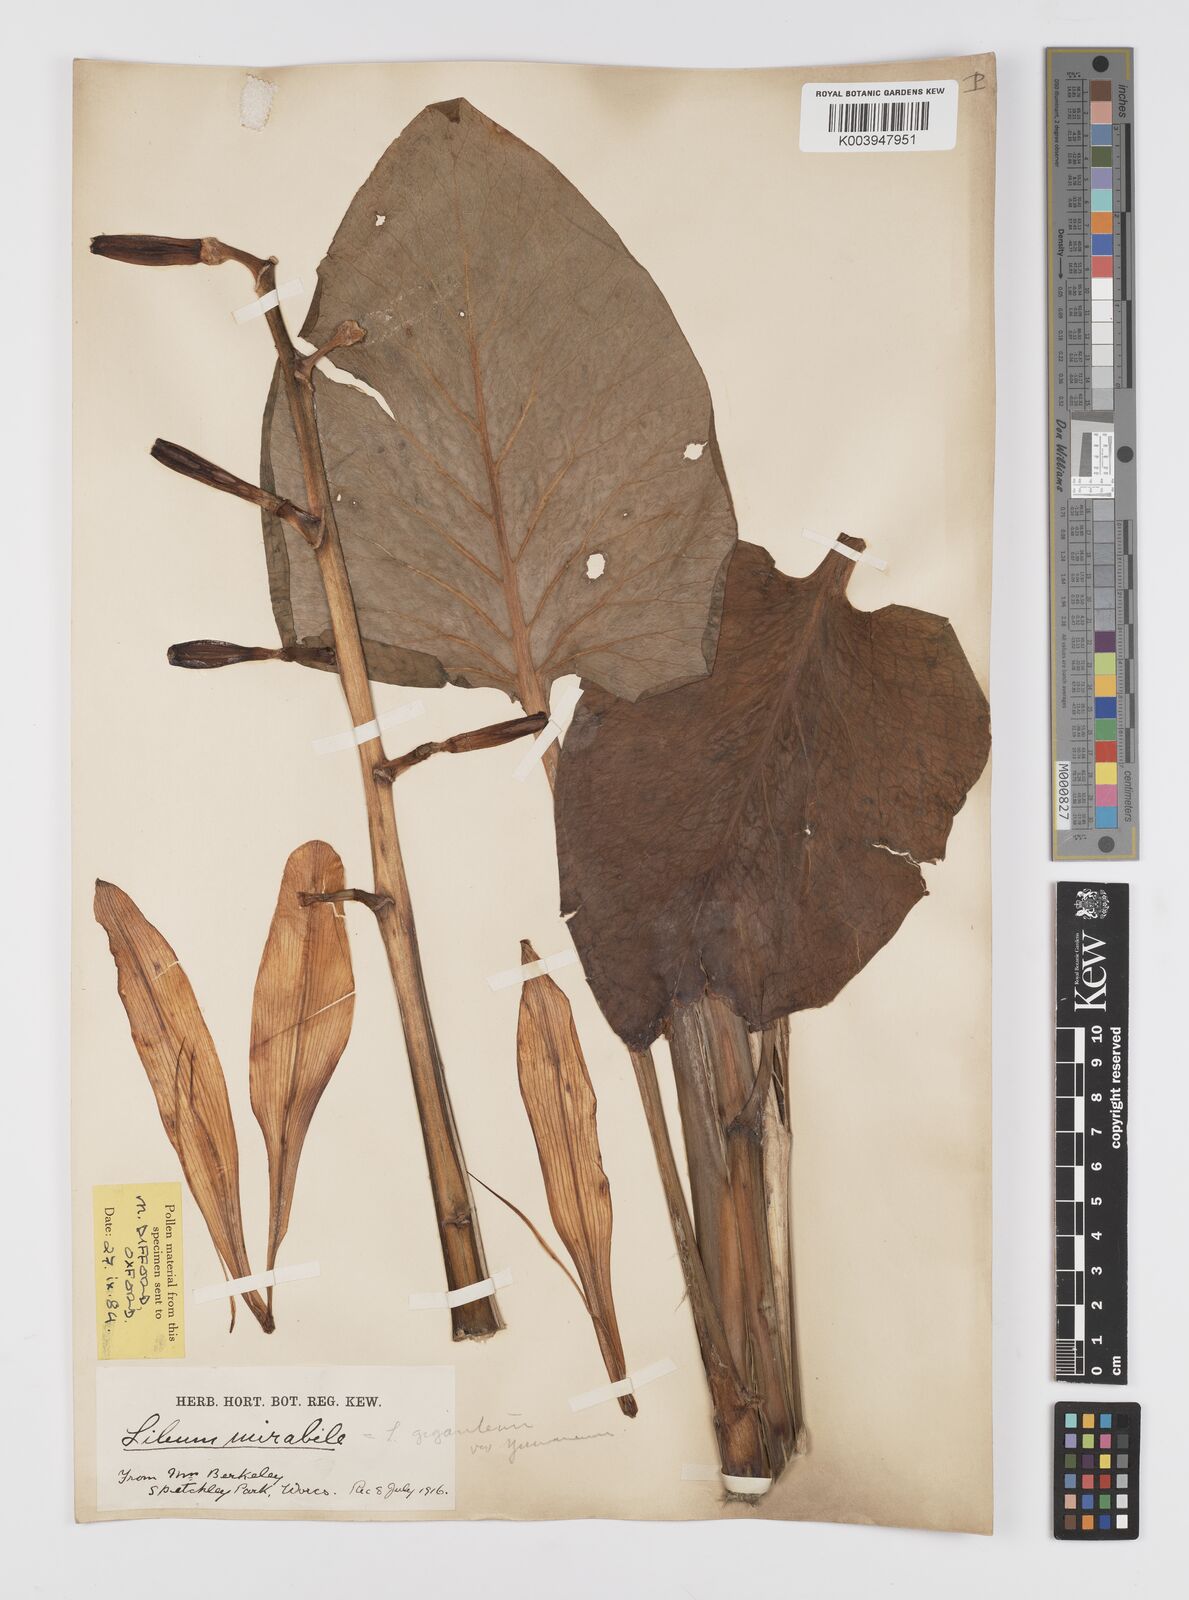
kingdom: Plantae
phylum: Tracheophyta
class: Liliopsida
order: Liliales
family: Liliaceae
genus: Cardiocrinum
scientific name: Cardiocrinum giganteum
